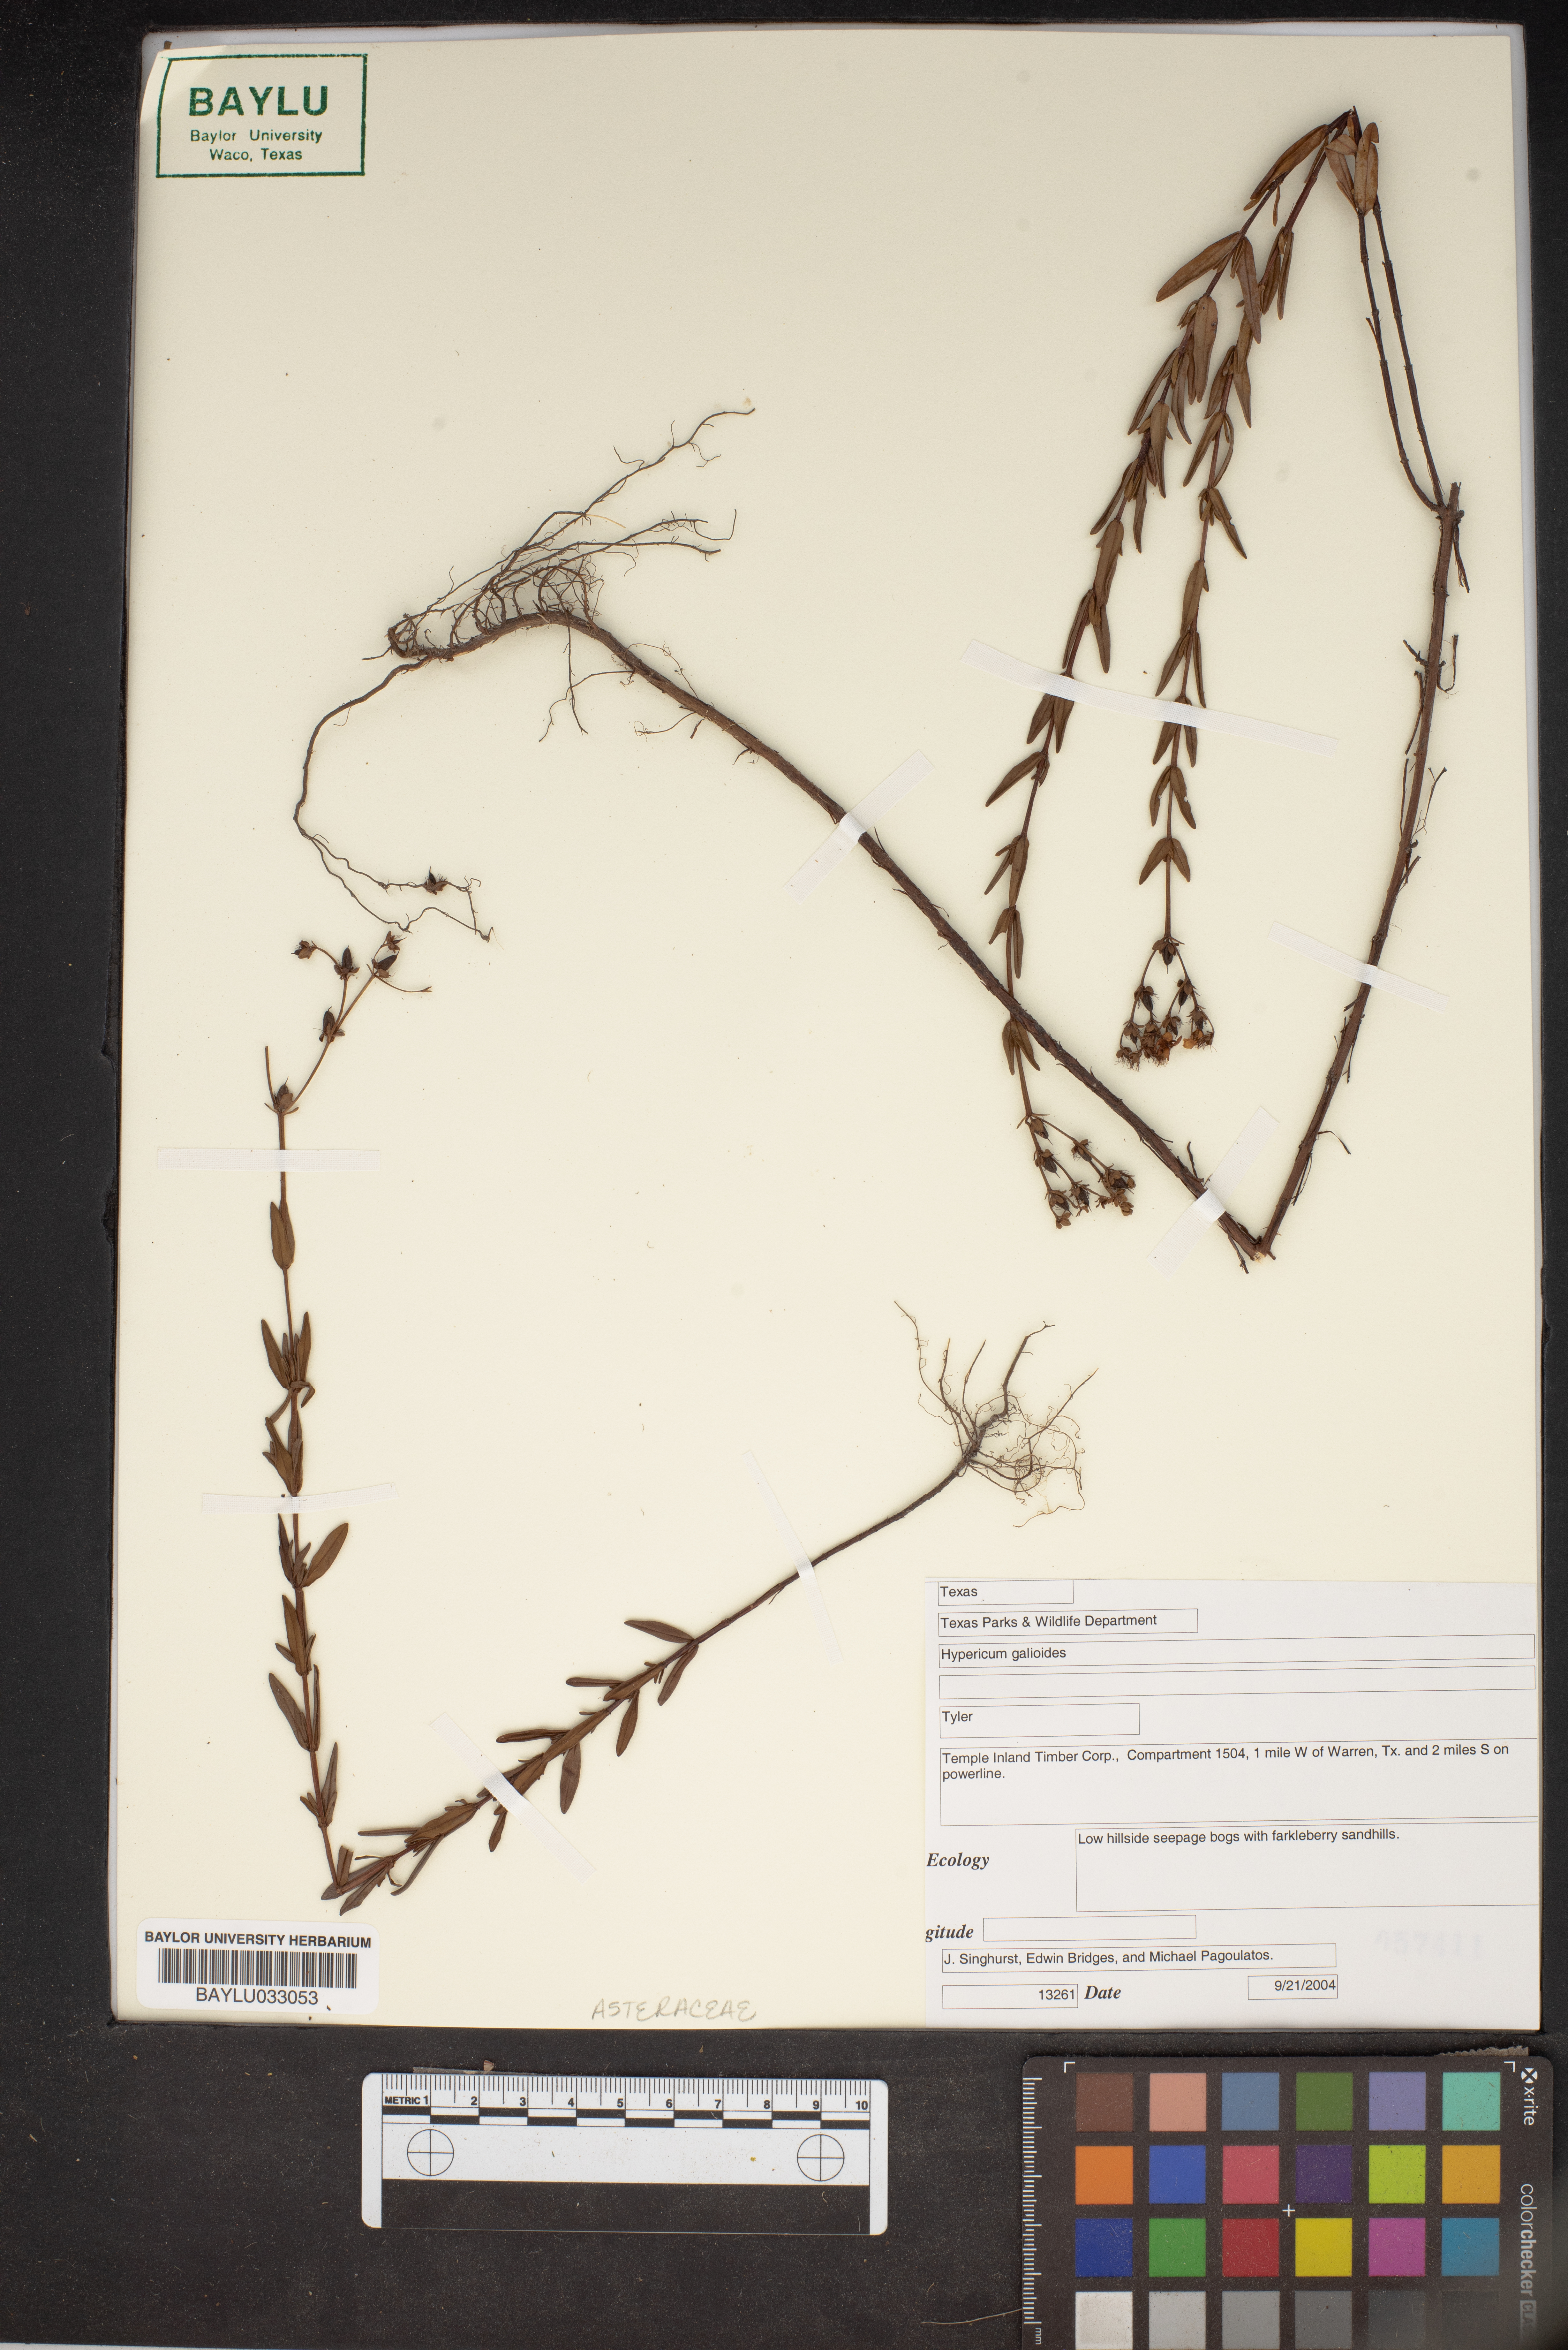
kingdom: Plantae
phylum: Tracheophyta
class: Magnoliopsida
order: Malpighiales
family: Hypericaceae
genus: Hypericum
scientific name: Hypericum galioides
